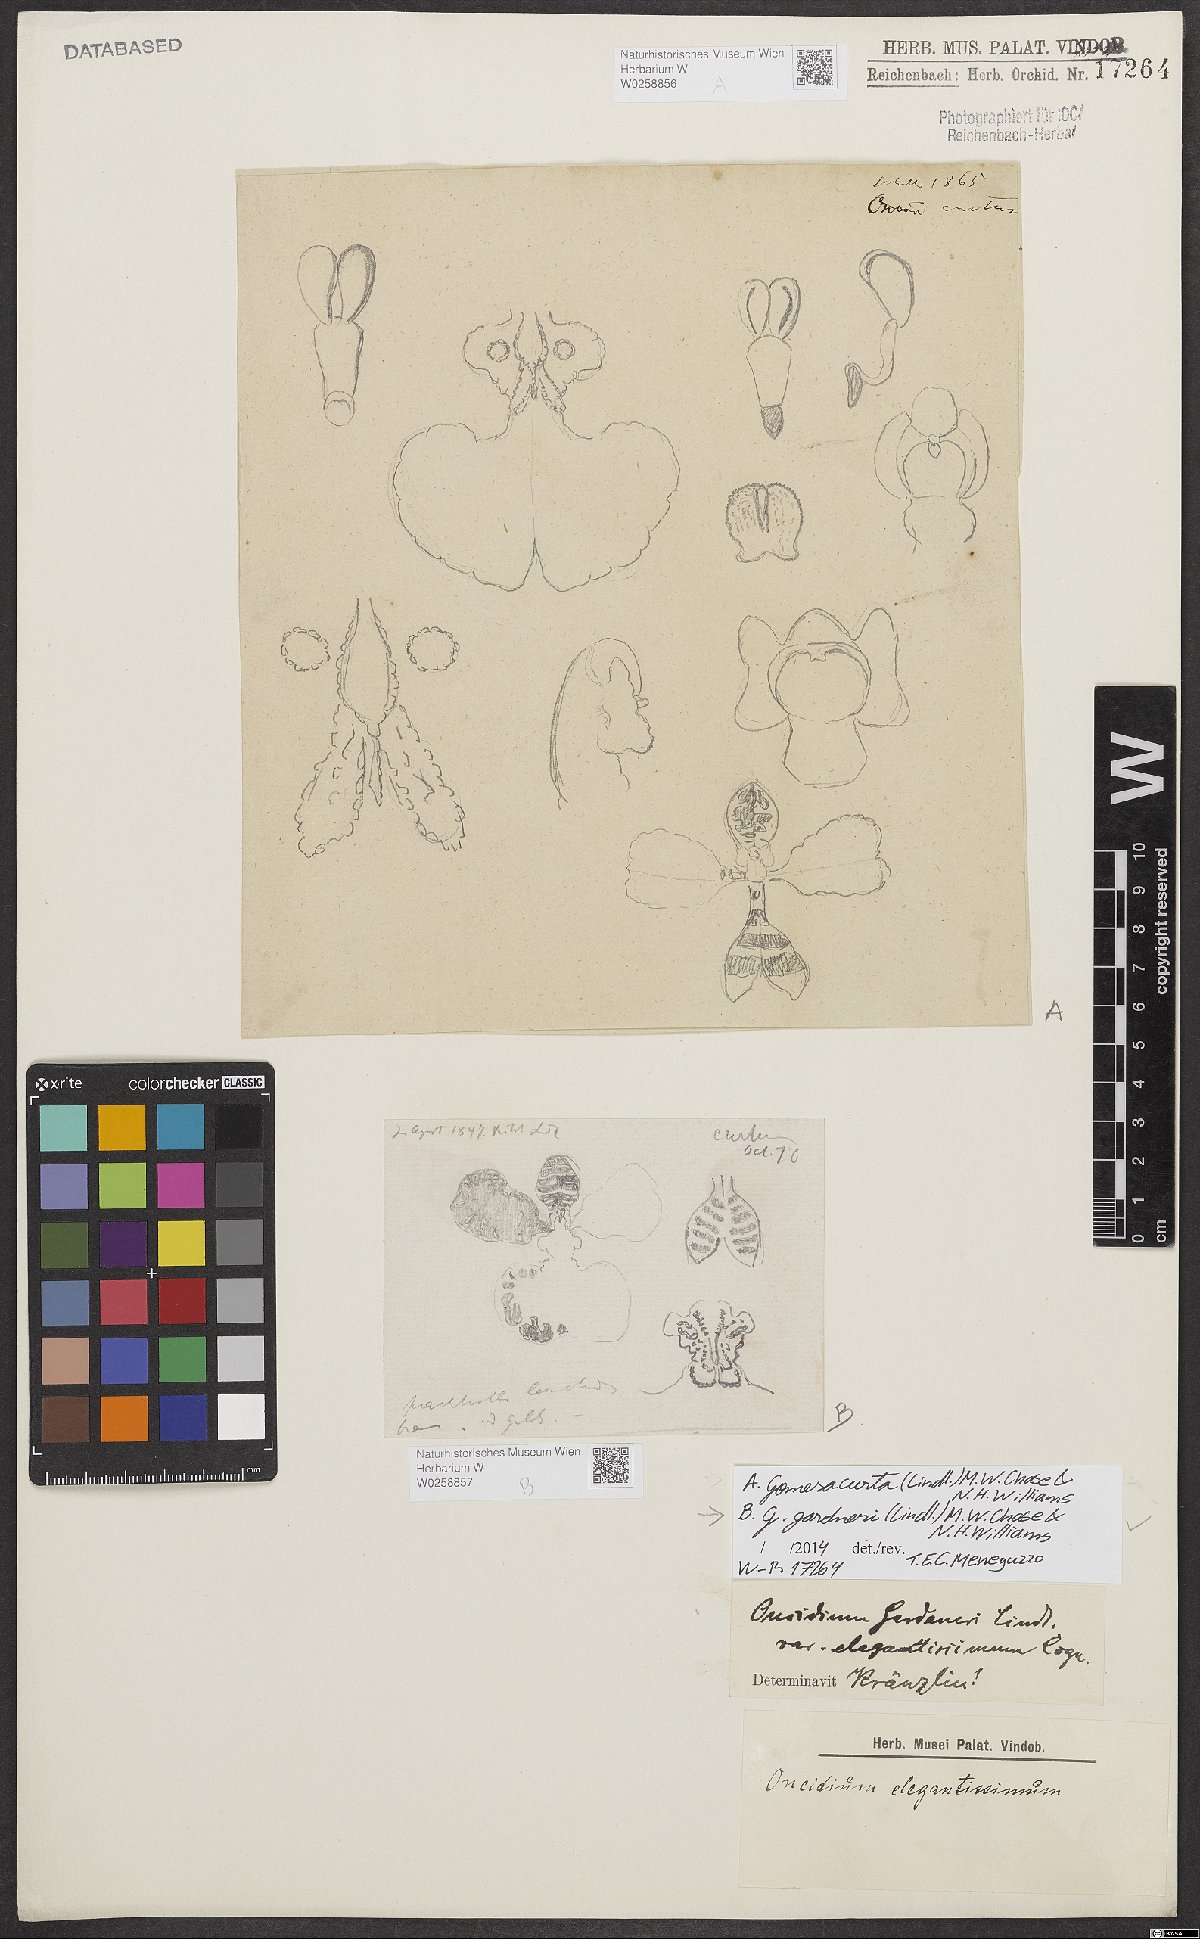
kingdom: Plantae
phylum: Tracheophyta
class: Liliopsida
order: Asparagales
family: Orchidaceae
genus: Gomesa
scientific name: Gomesa gardneri
